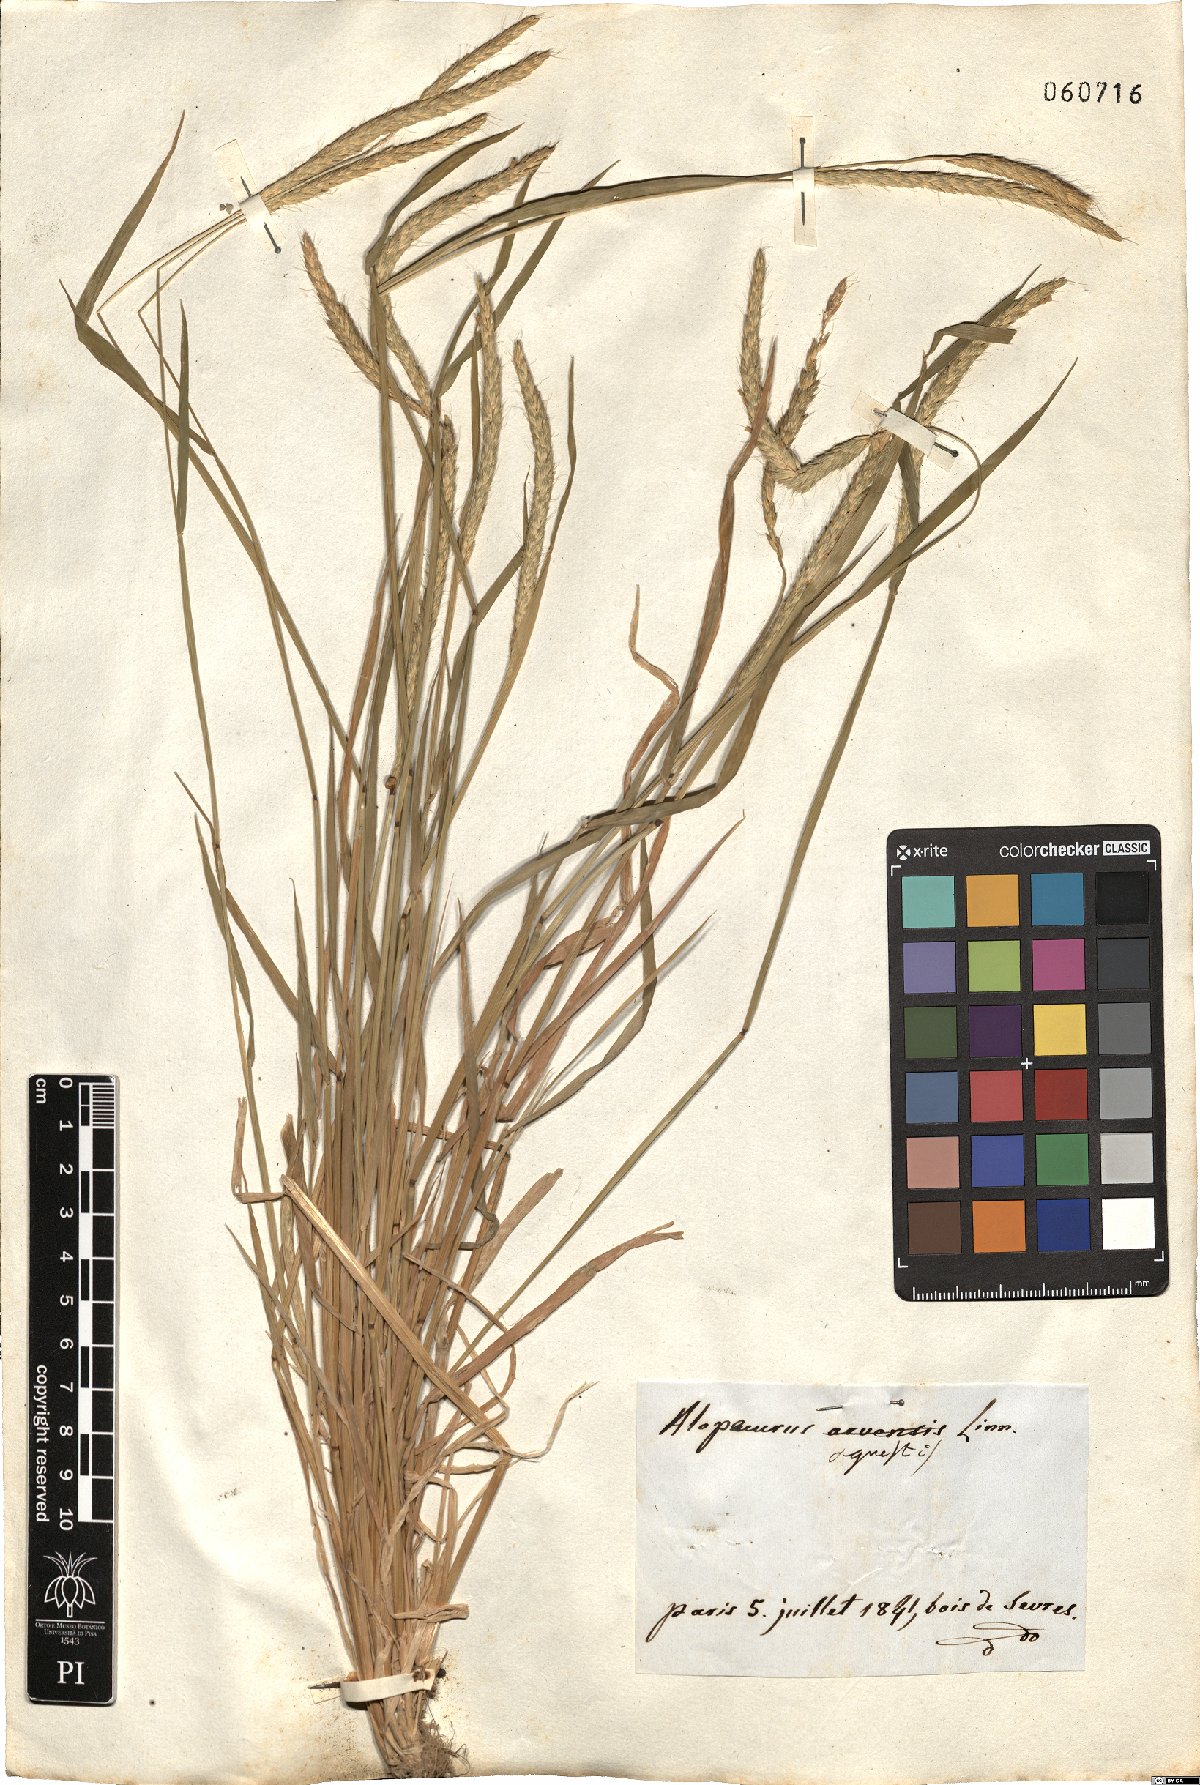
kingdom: Plantae
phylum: Tracheophyta
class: Liliopsida
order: Poales
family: Poaceae
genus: Alopecurus
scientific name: Alopecurus myosuroides
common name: Black-grass
